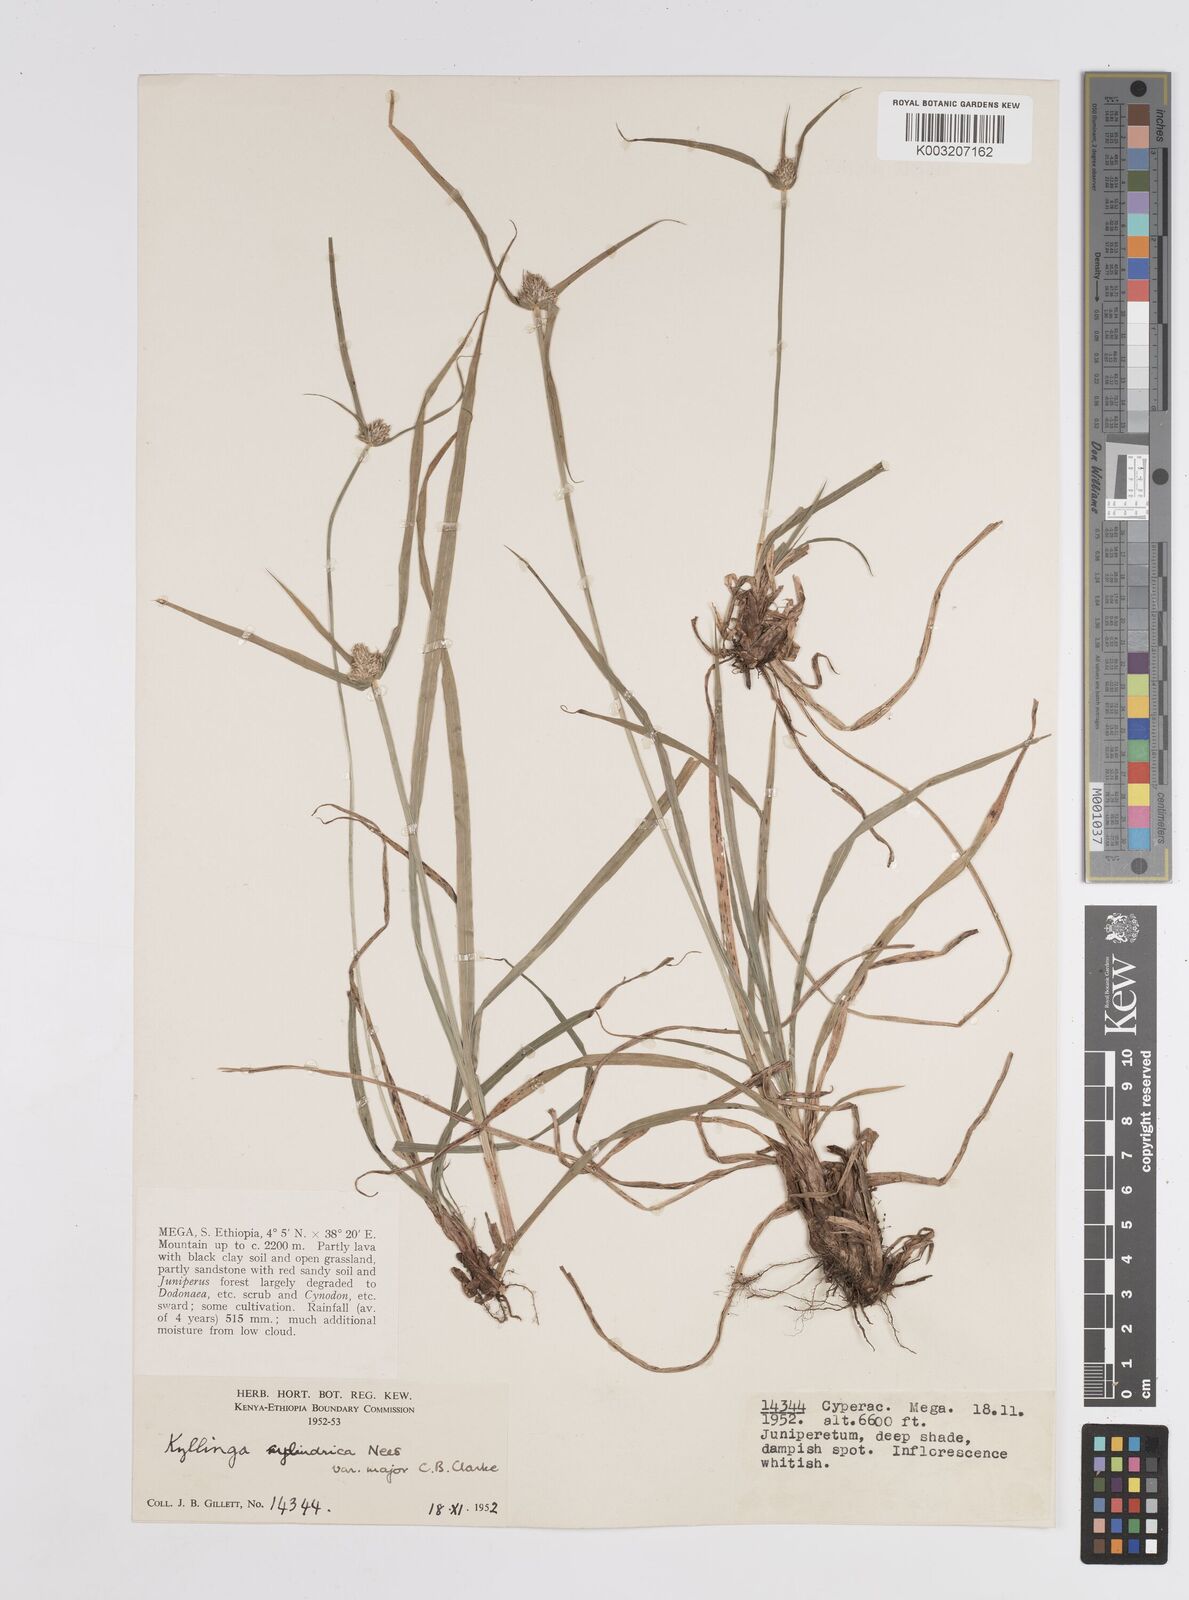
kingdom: Plantae
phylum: Tracheophyta
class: Liliopsida
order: Poales
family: Cyperaceae
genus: Cyperus
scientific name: Cyperus
